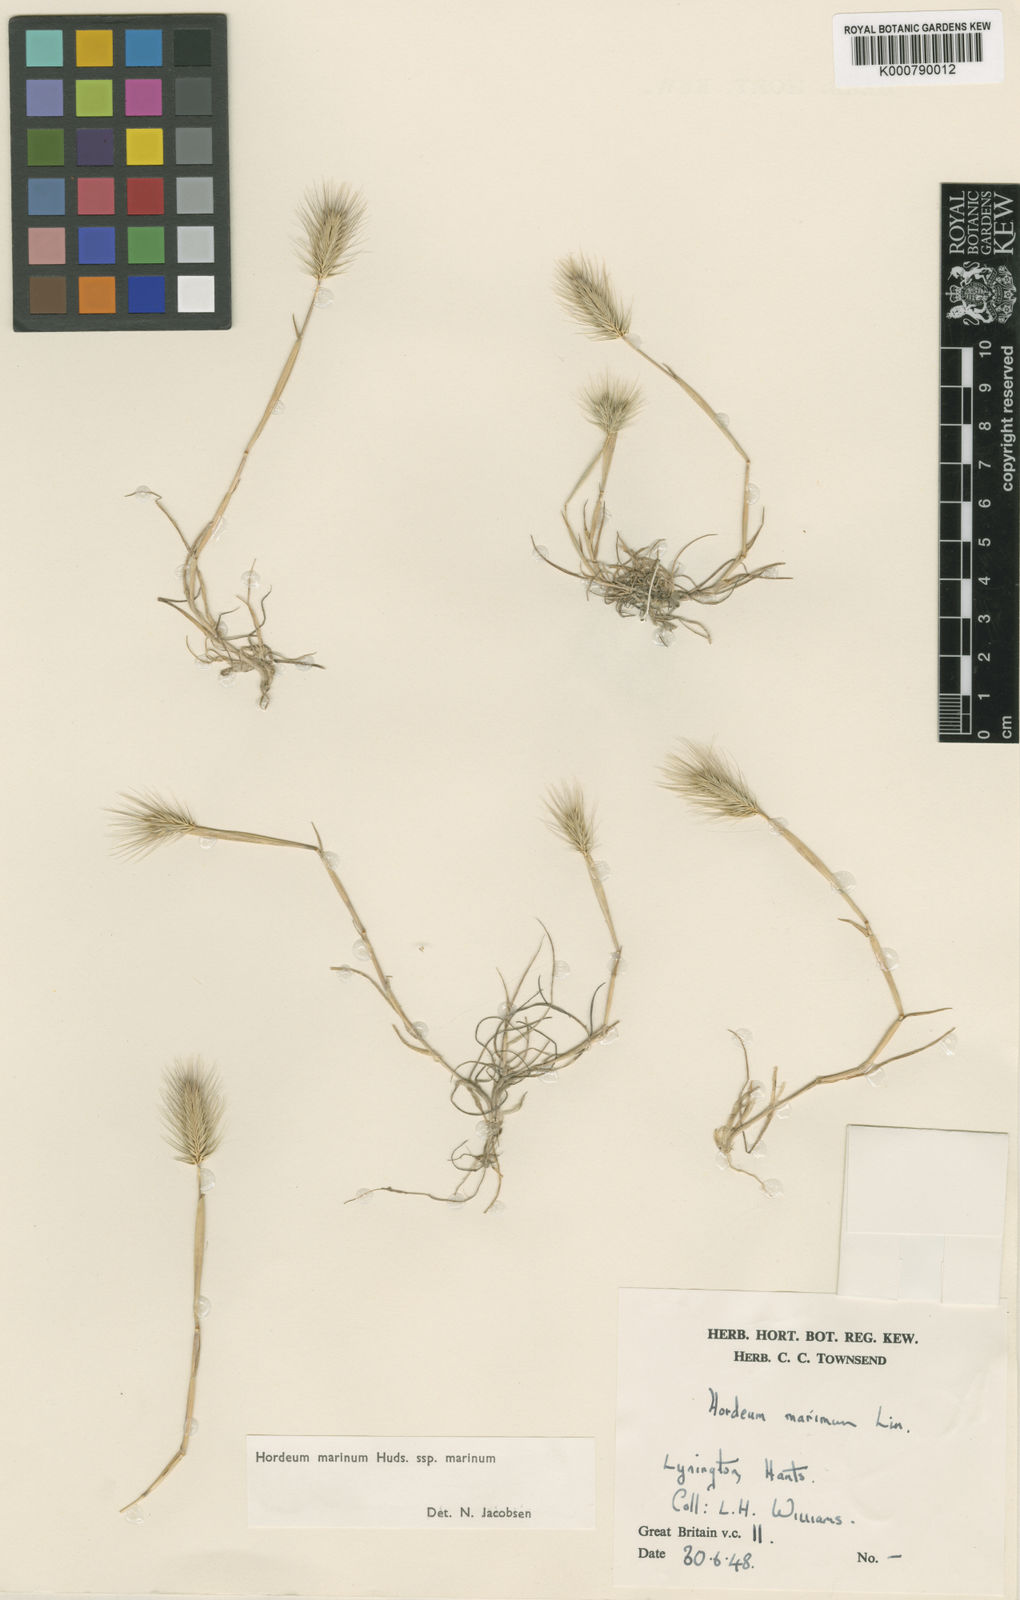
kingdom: Plantae
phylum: Tracheophyta
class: Liliopsida
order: Poales
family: Poaceae
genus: Hordeum
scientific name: Hordeum marinum
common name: Sea barley
